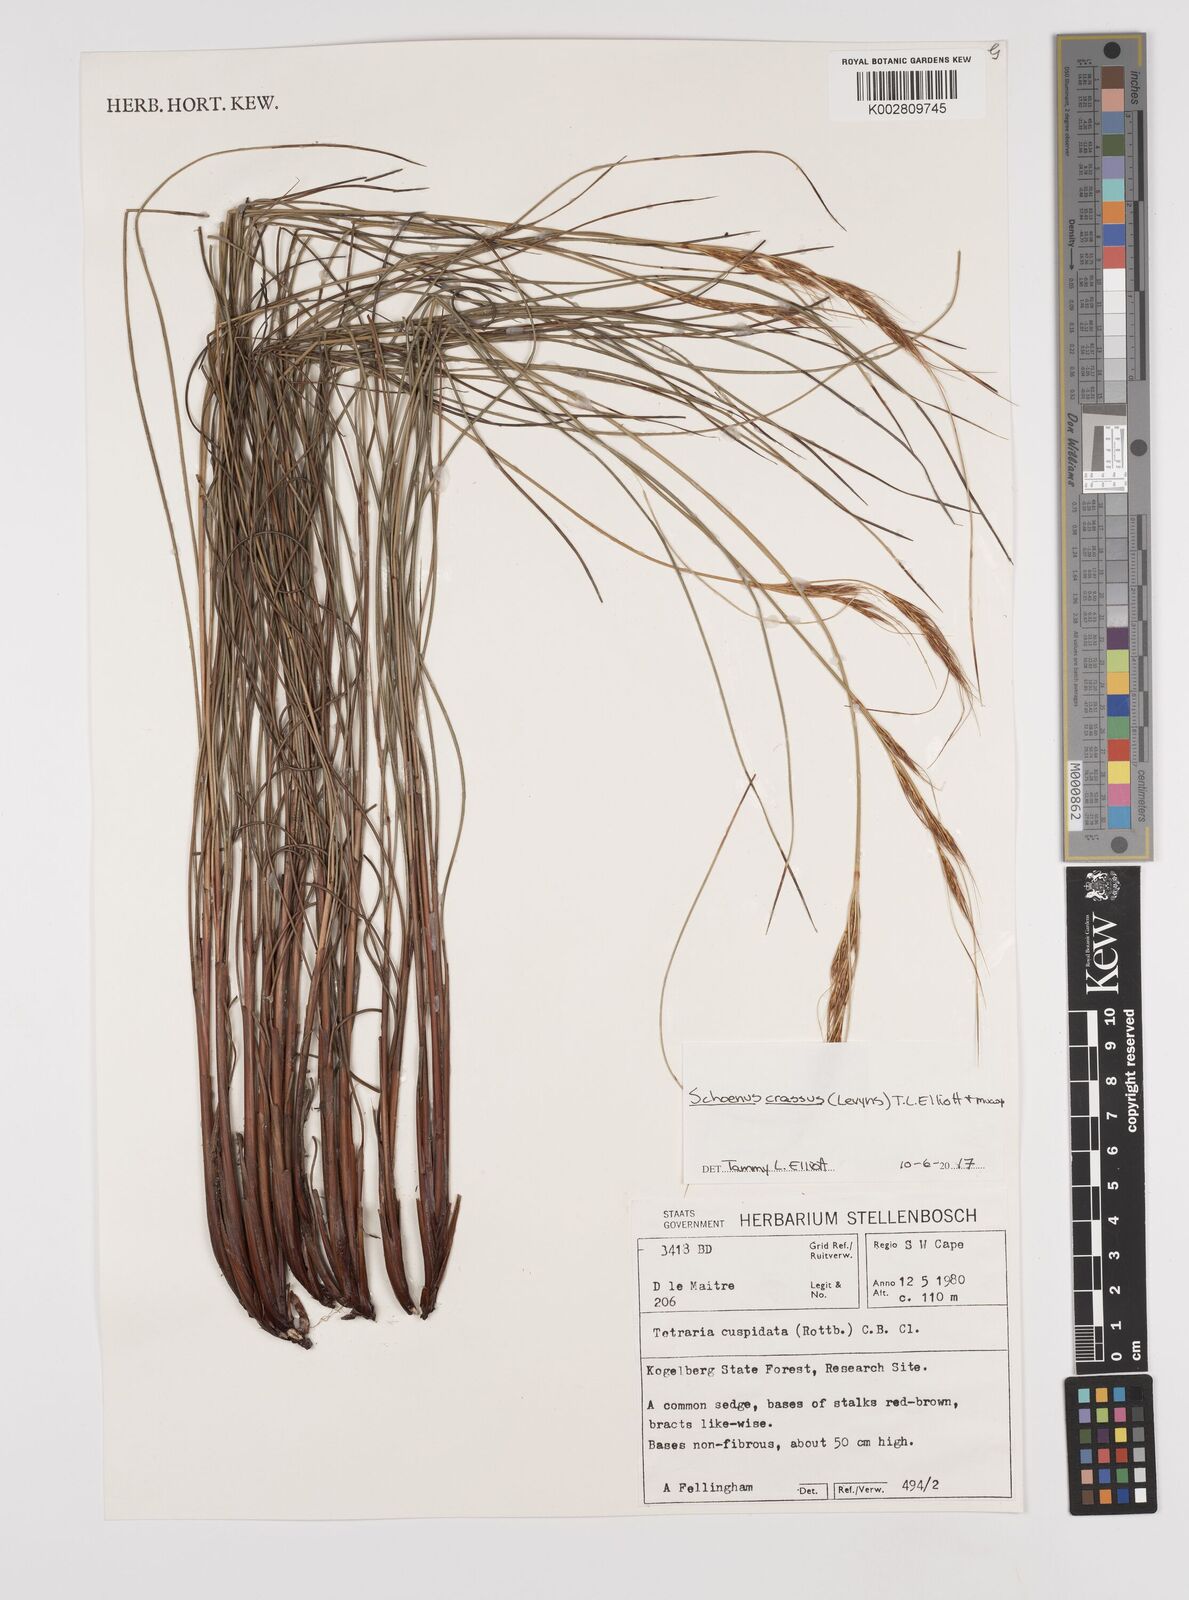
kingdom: Plantae
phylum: Tracheophyta
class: Liliopsida
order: Poales
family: Cyperaceae
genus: Schoenus
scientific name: Schoenus crassus
